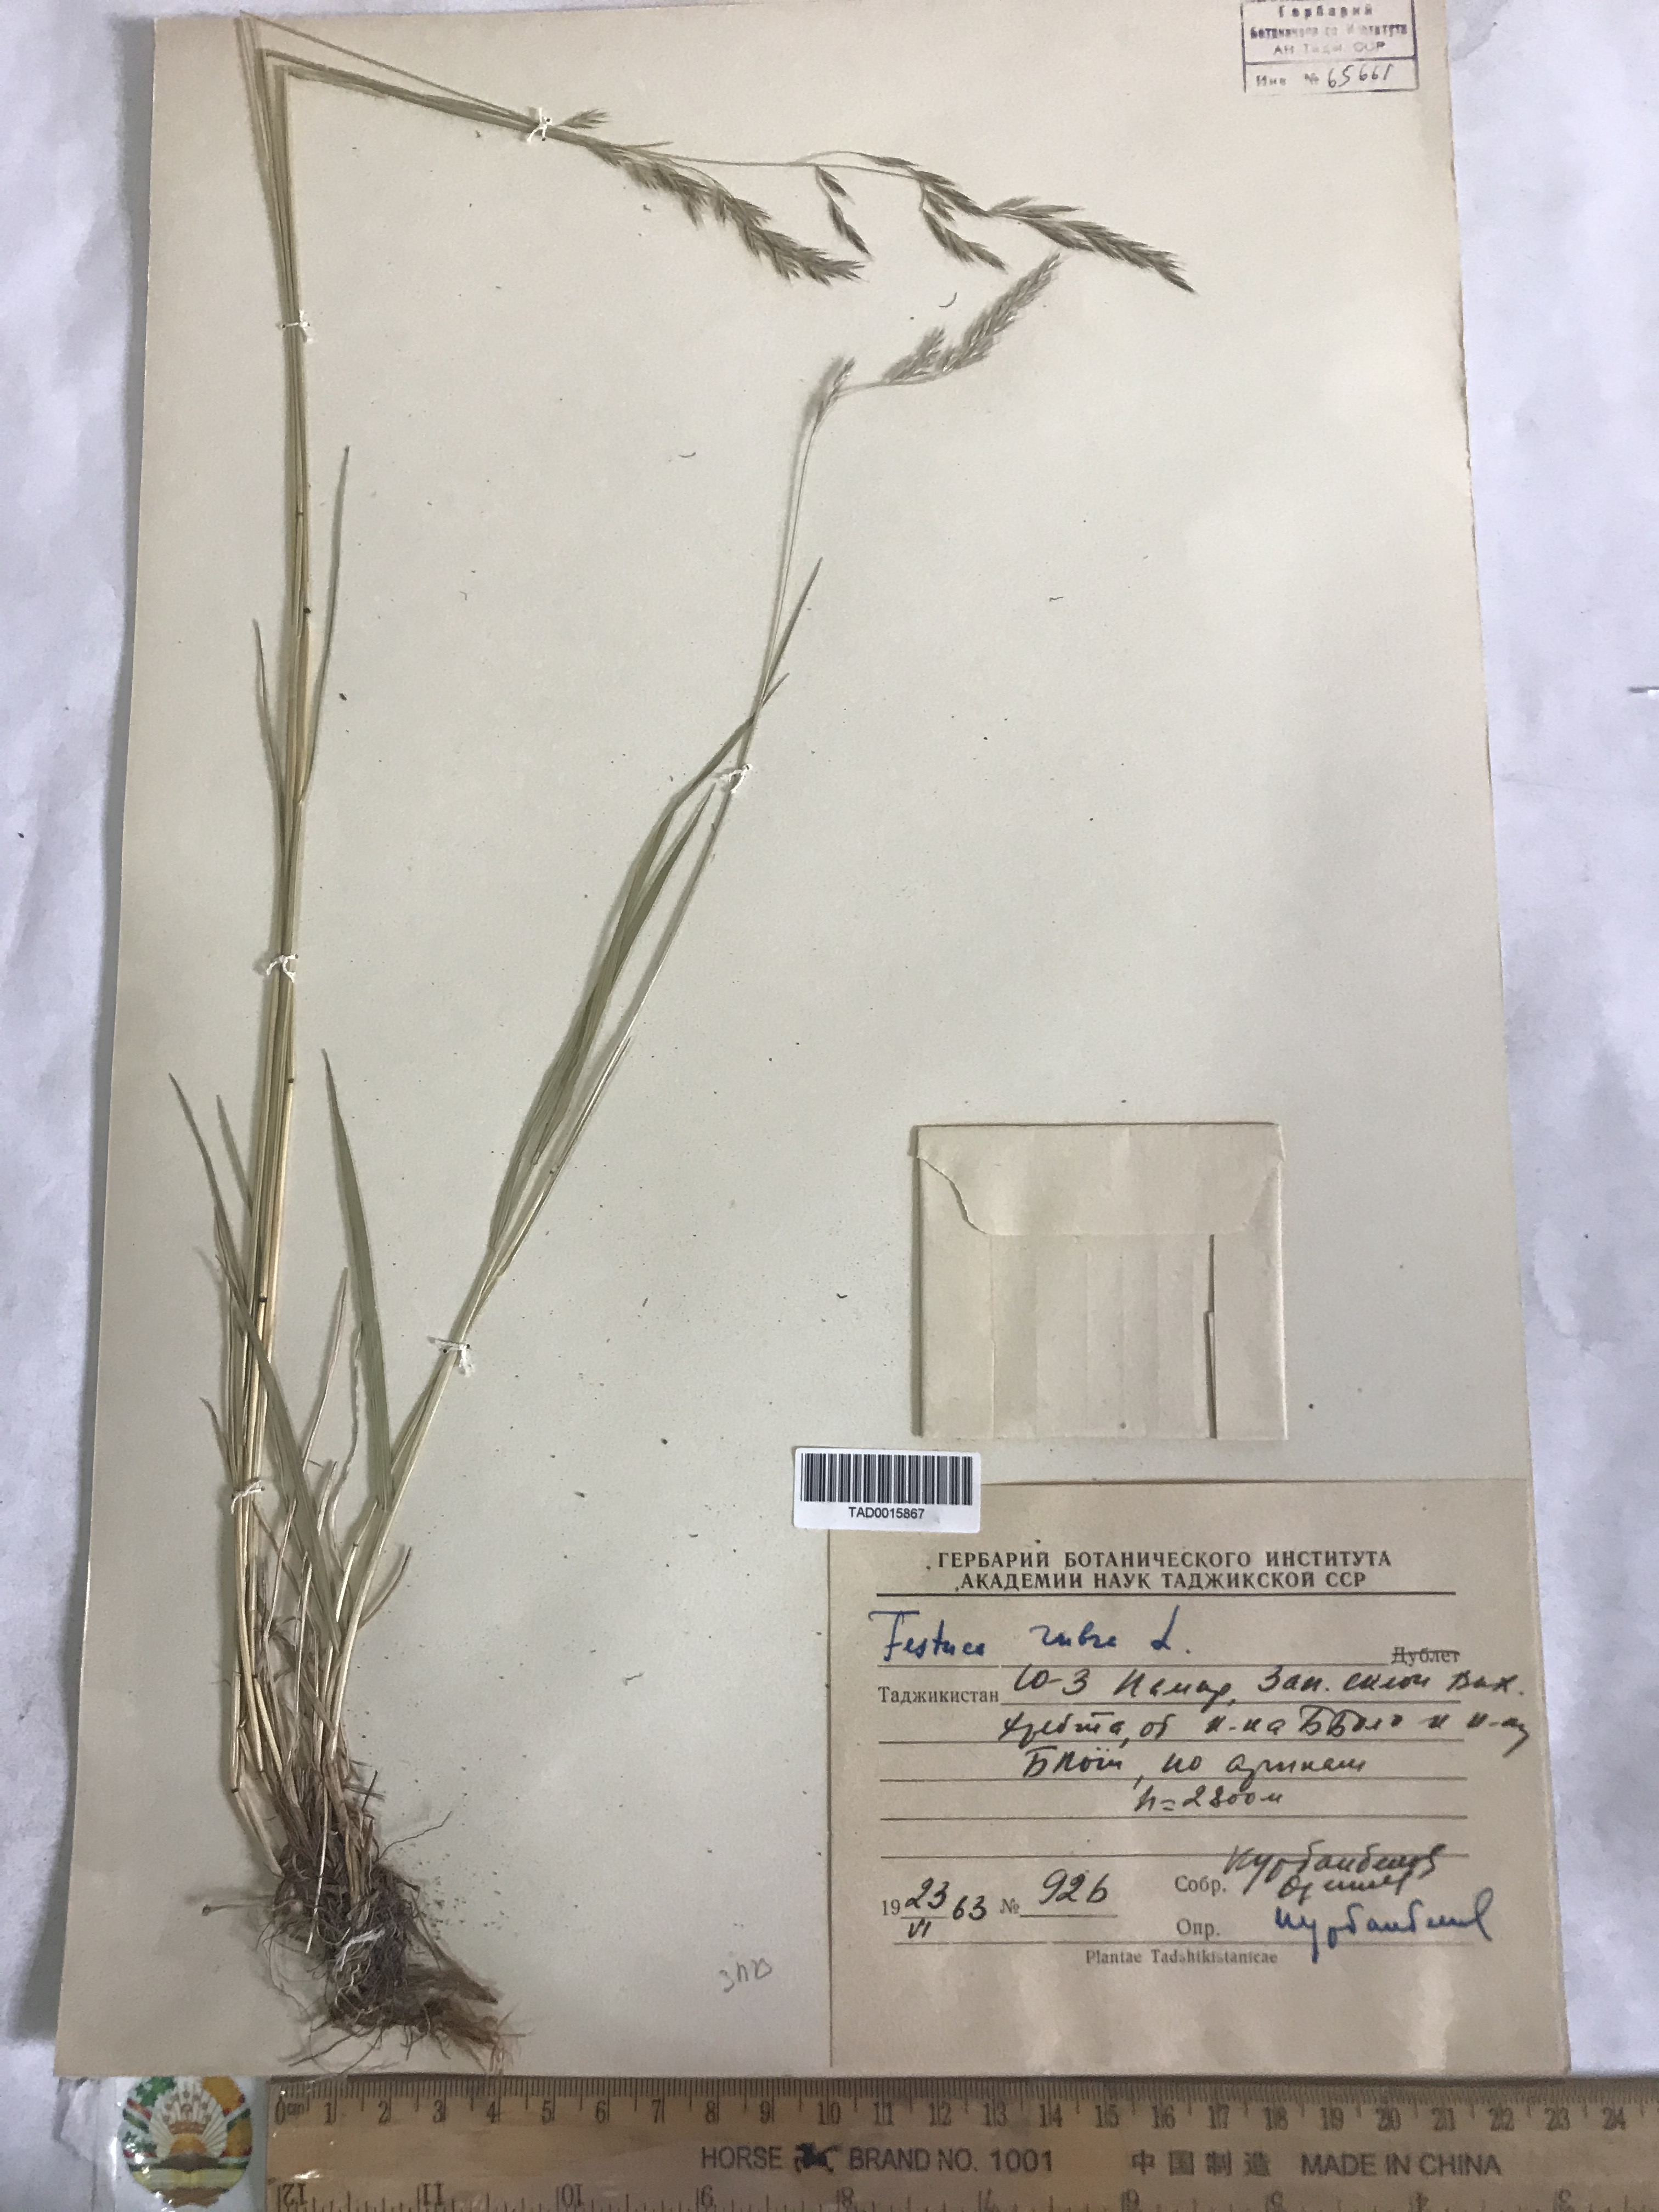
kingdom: Plantae
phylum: Tracheophyta
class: Liliopsida
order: Poales
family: Poaceae
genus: Festuca
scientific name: Festuca rubra
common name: Red fescue
